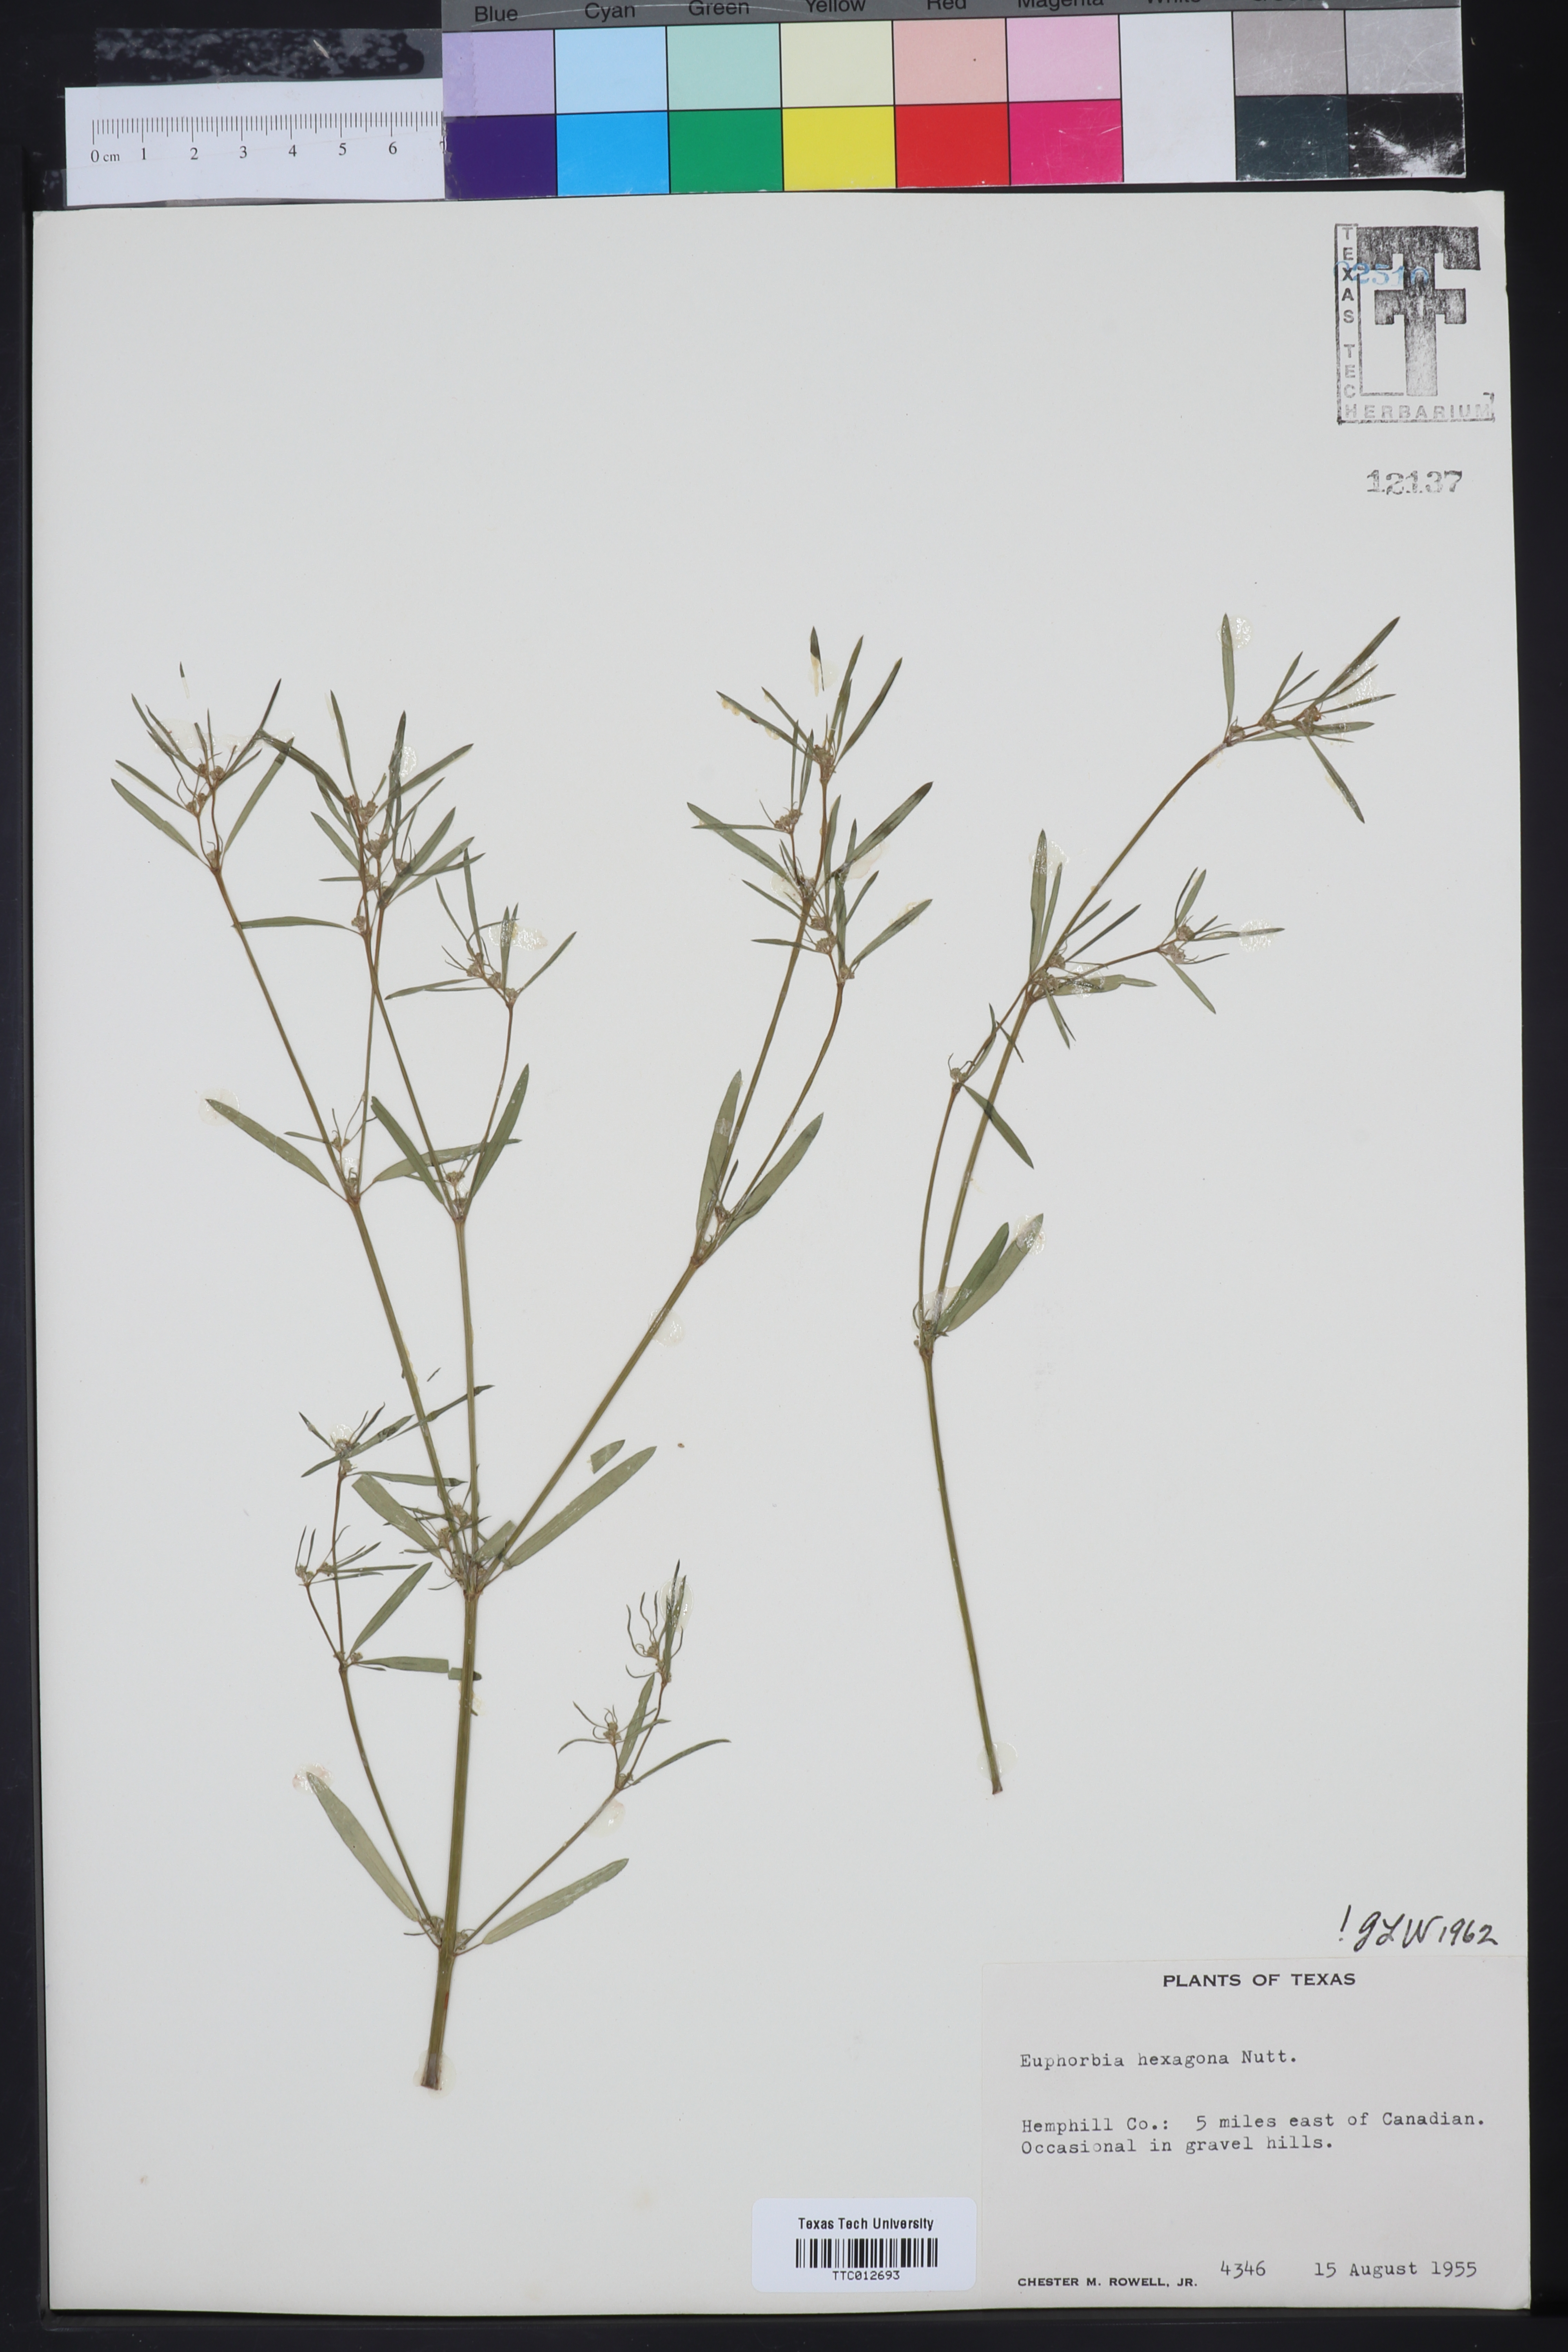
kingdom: Plantae
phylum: Tracheophyta
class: Magnoliopsida
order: Malpighiales
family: Euphorbiaceae
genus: Euphorbia
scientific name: Euphorbia hexagona
